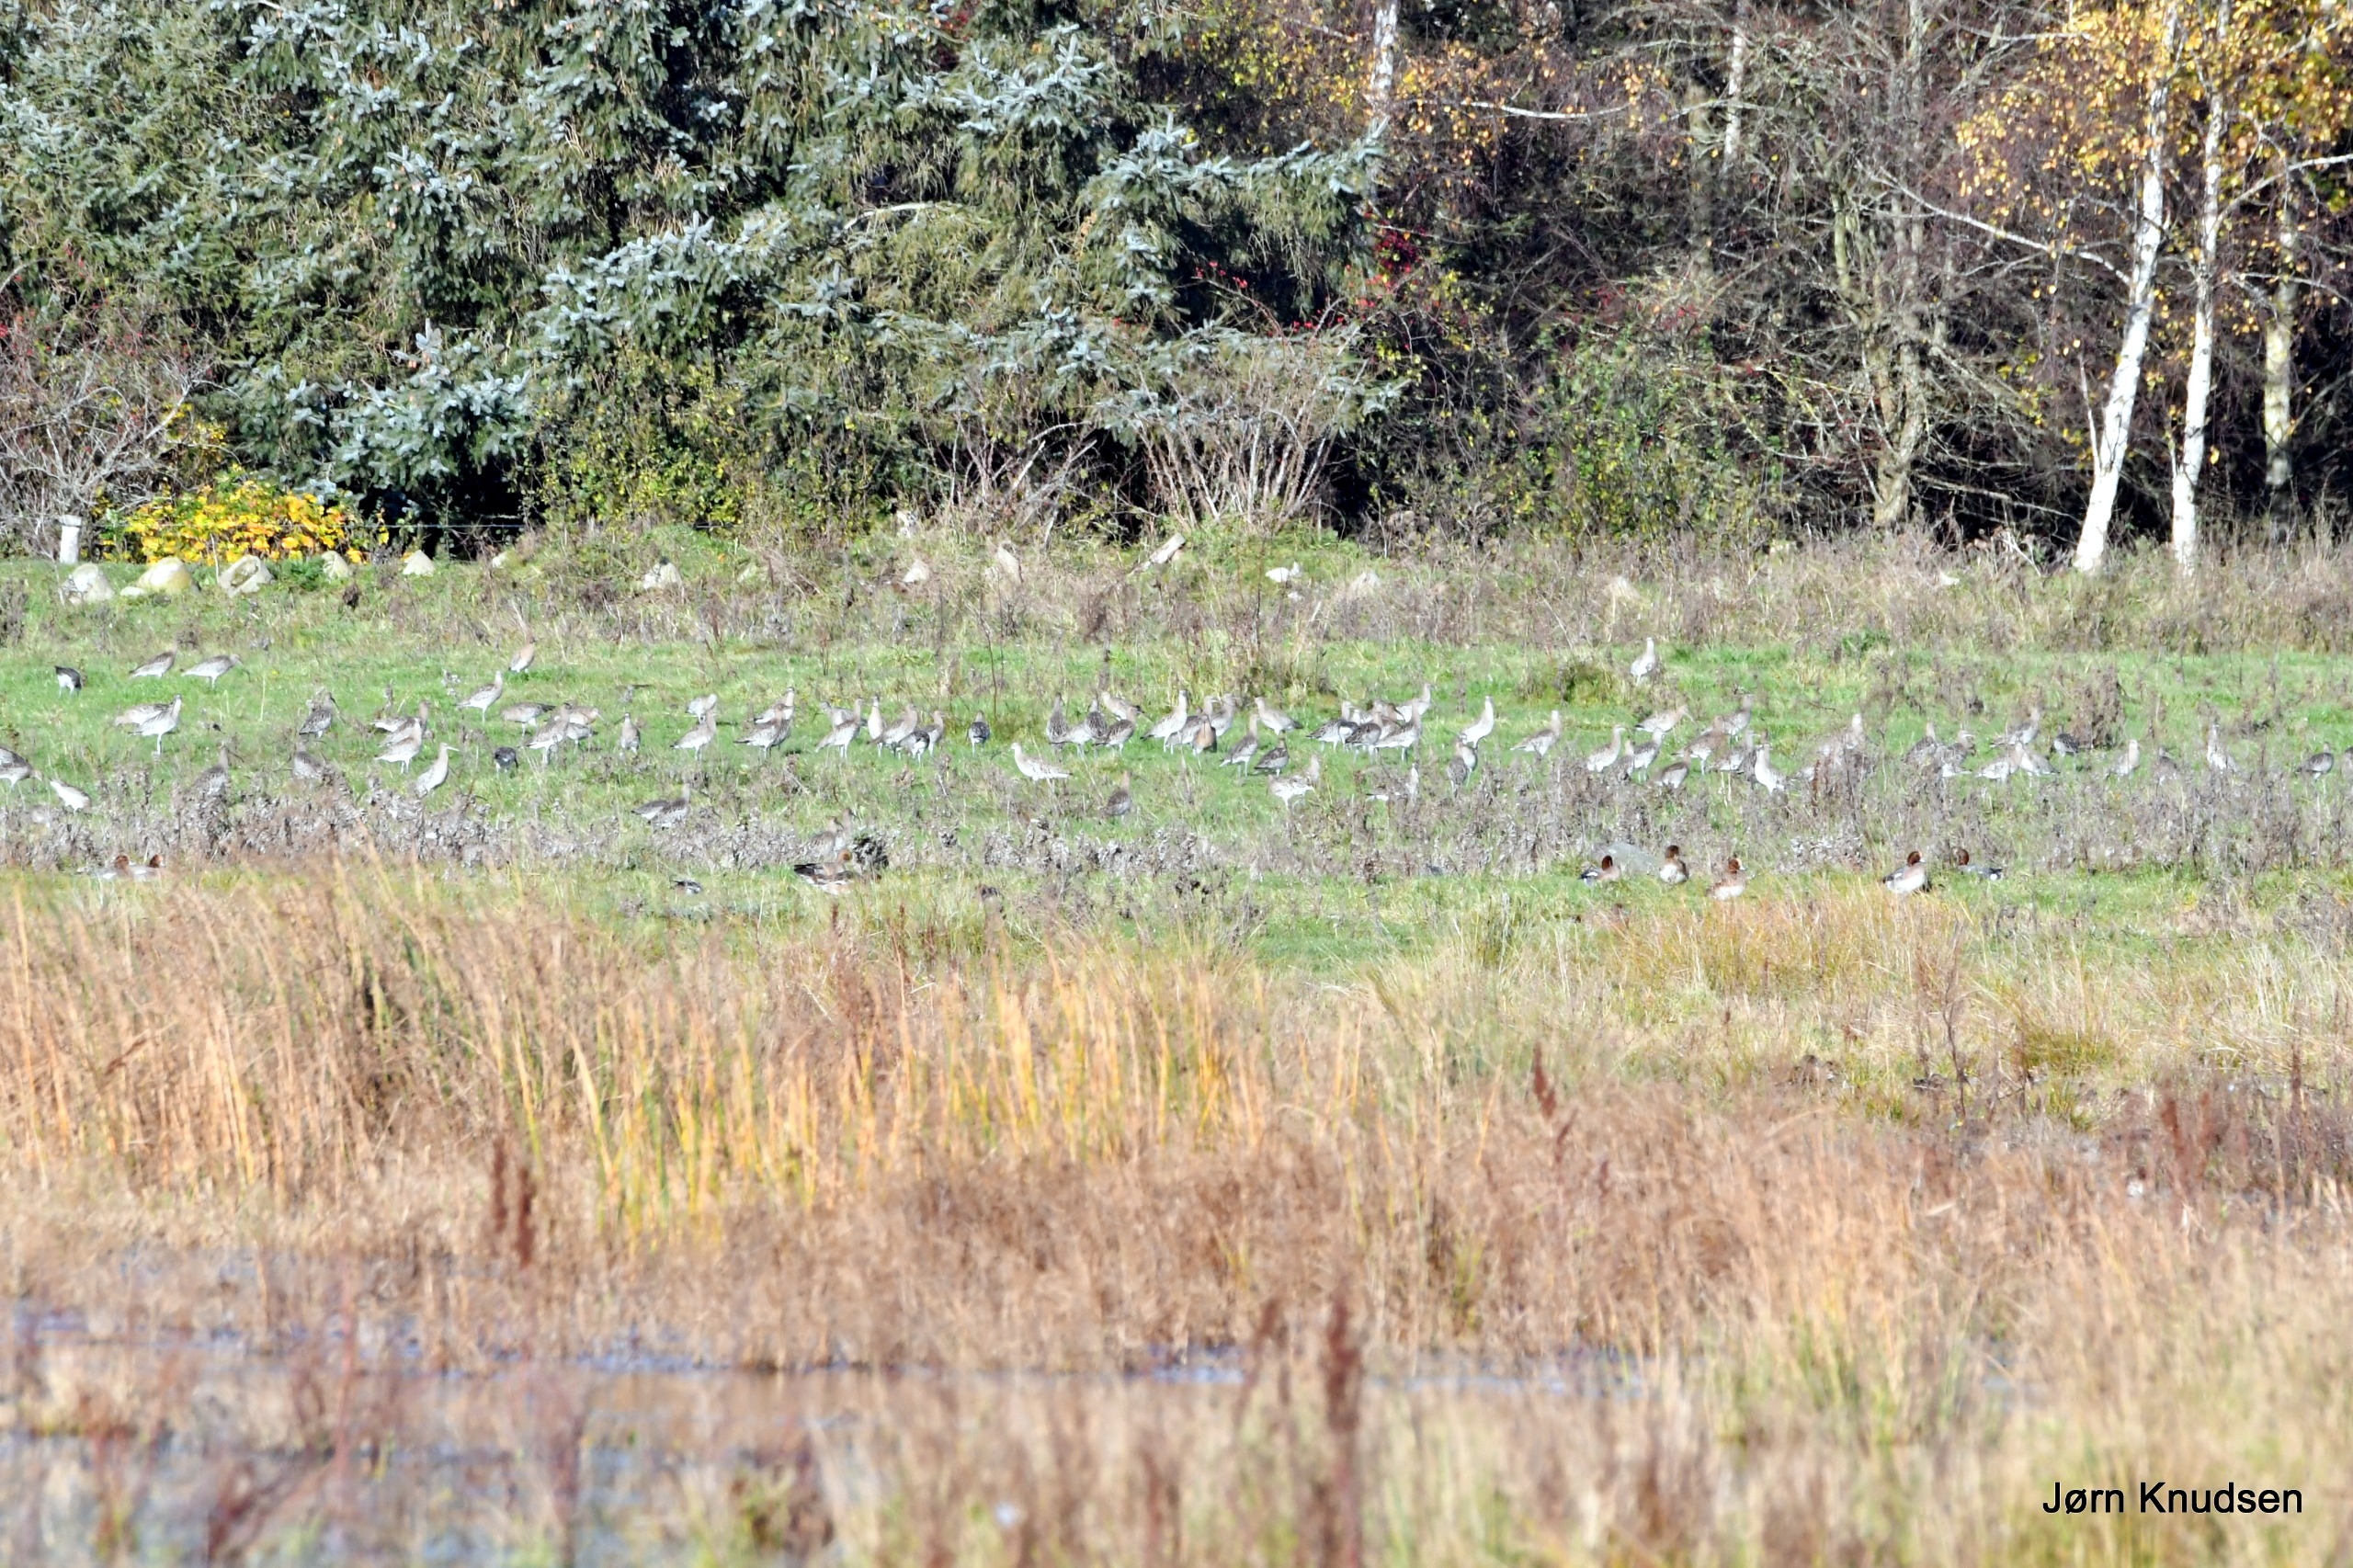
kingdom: Animalia
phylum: Chordata
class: Aves
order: Charadriiformes
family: Scolopacidae
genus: Numenius
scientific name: Numenius arquata
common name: Storspove
